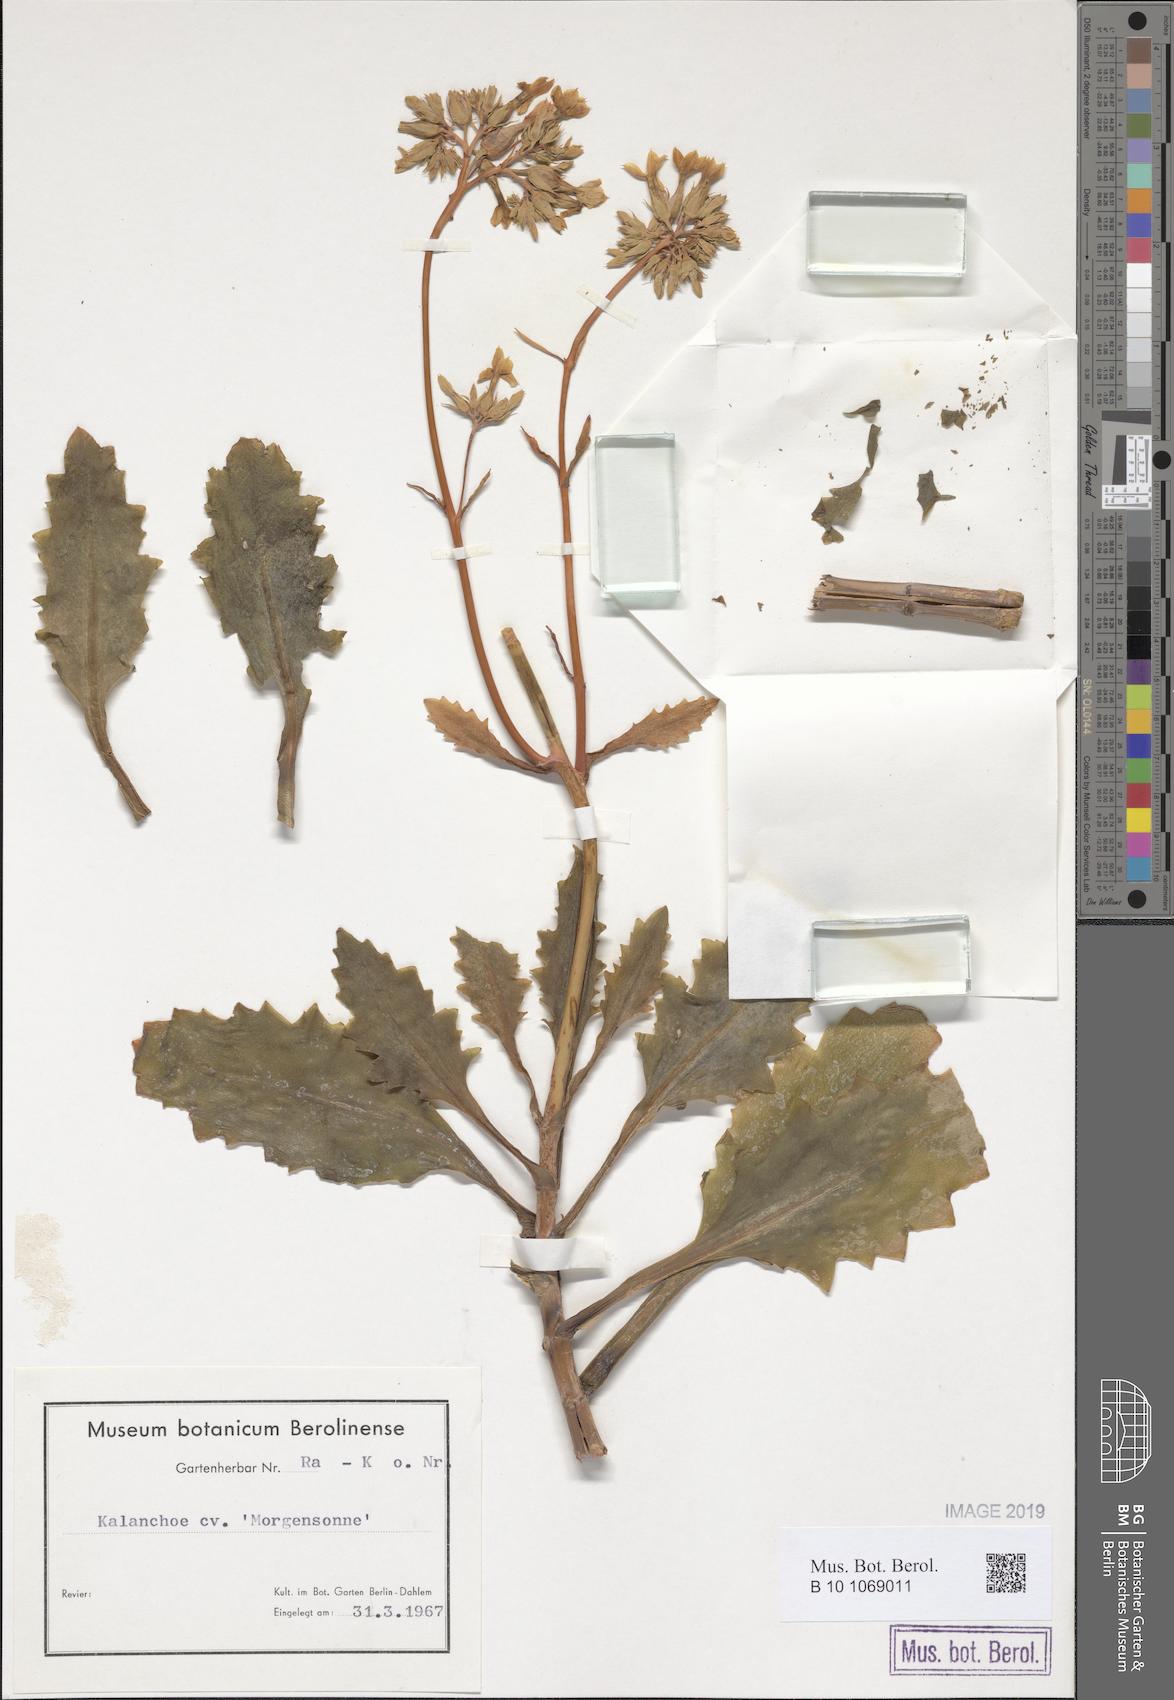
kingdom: Plantae
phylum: Tracheophyta
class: Magnoliopsida
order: Saxifragales
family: Crassulaceae
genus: Kalanchoe
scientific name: Kalanchoe
